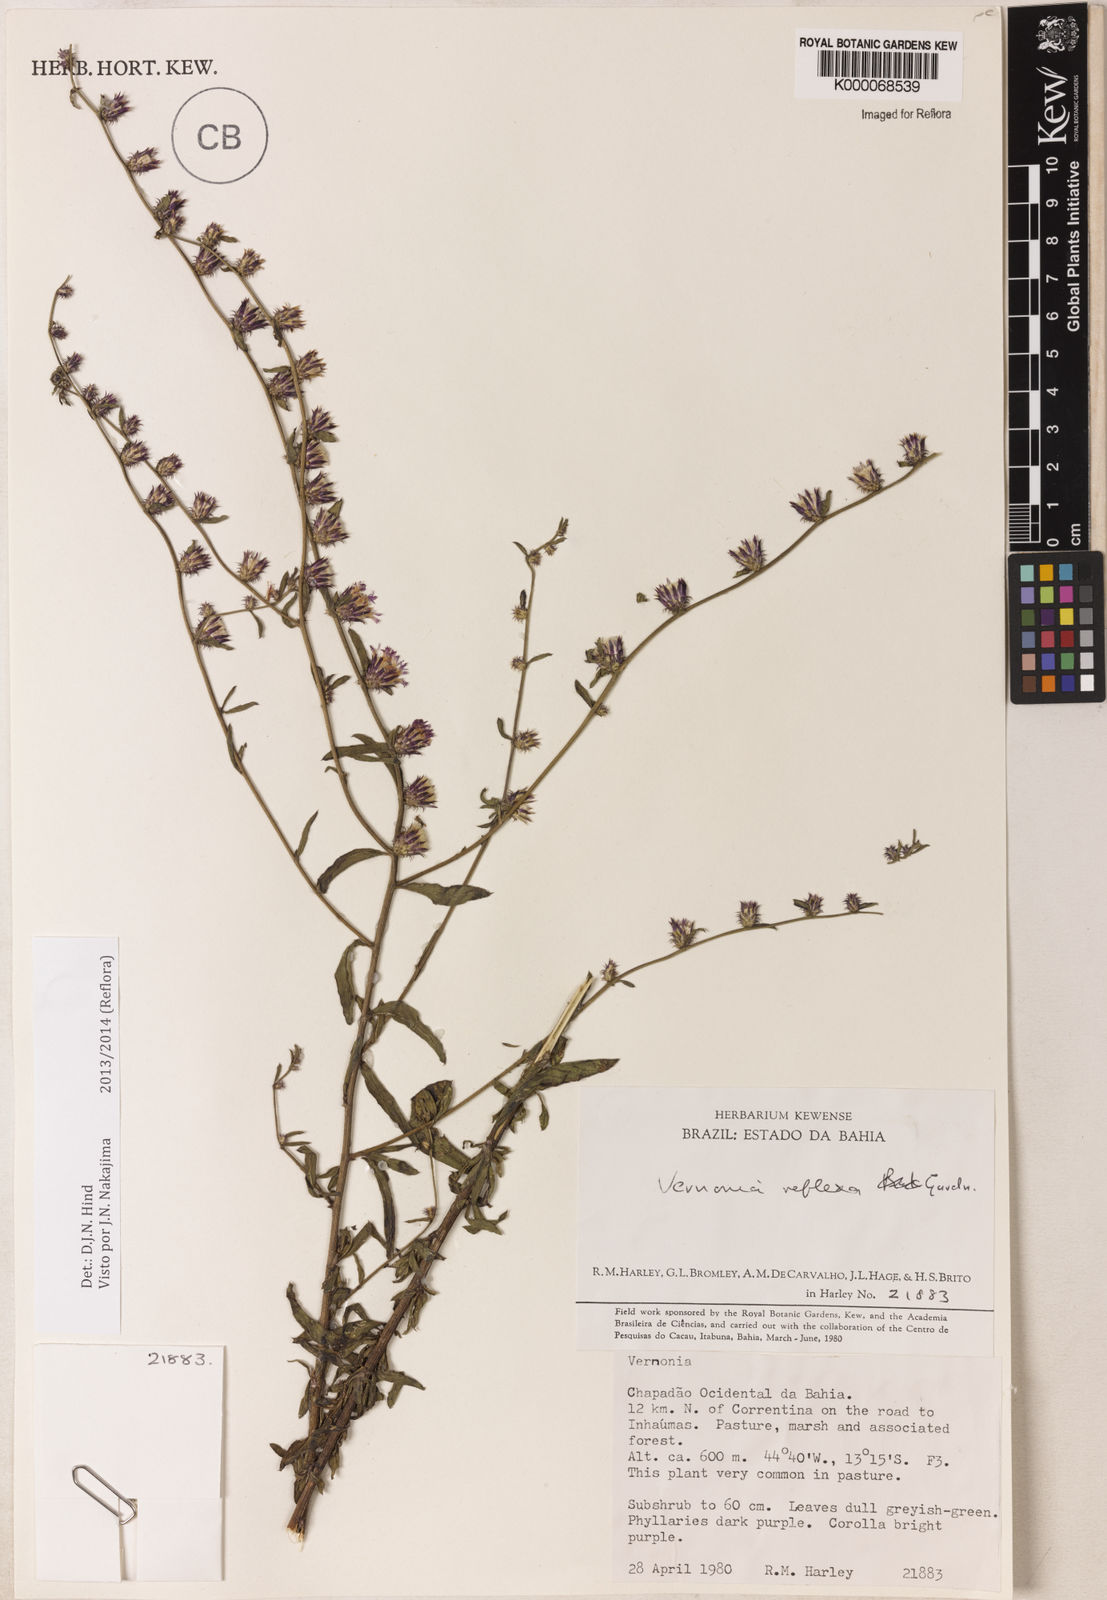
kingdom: Plantae
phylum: Tracheophyta
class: Magnoliopsida
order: Asterales
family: Asteraceae
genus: Lepidaploa
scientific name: Lepidaploa reflexa
